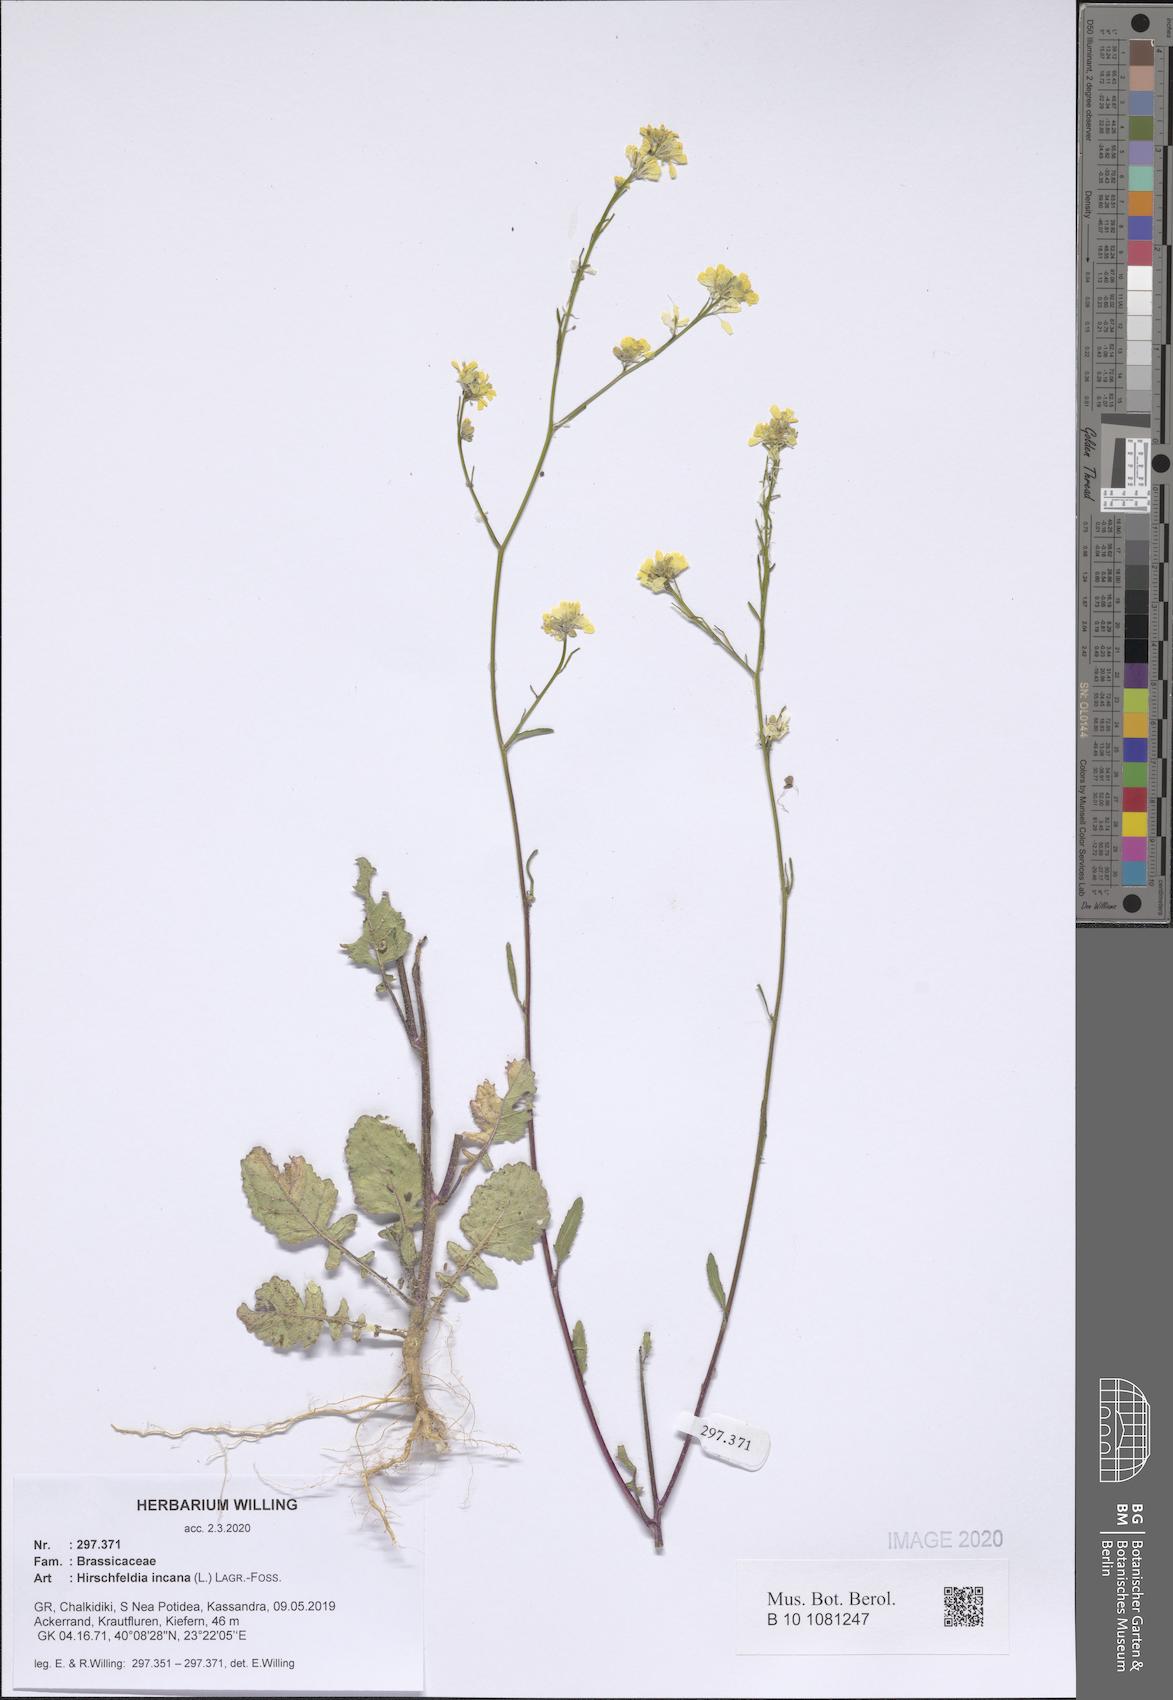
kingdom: Plantae
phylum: Tracheophyta
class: Magnoliopsida
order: Brassicales
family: Brassicaceae
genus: Hirschfeldia
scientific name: Hirschfeldia incana
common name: Hoary mustard
